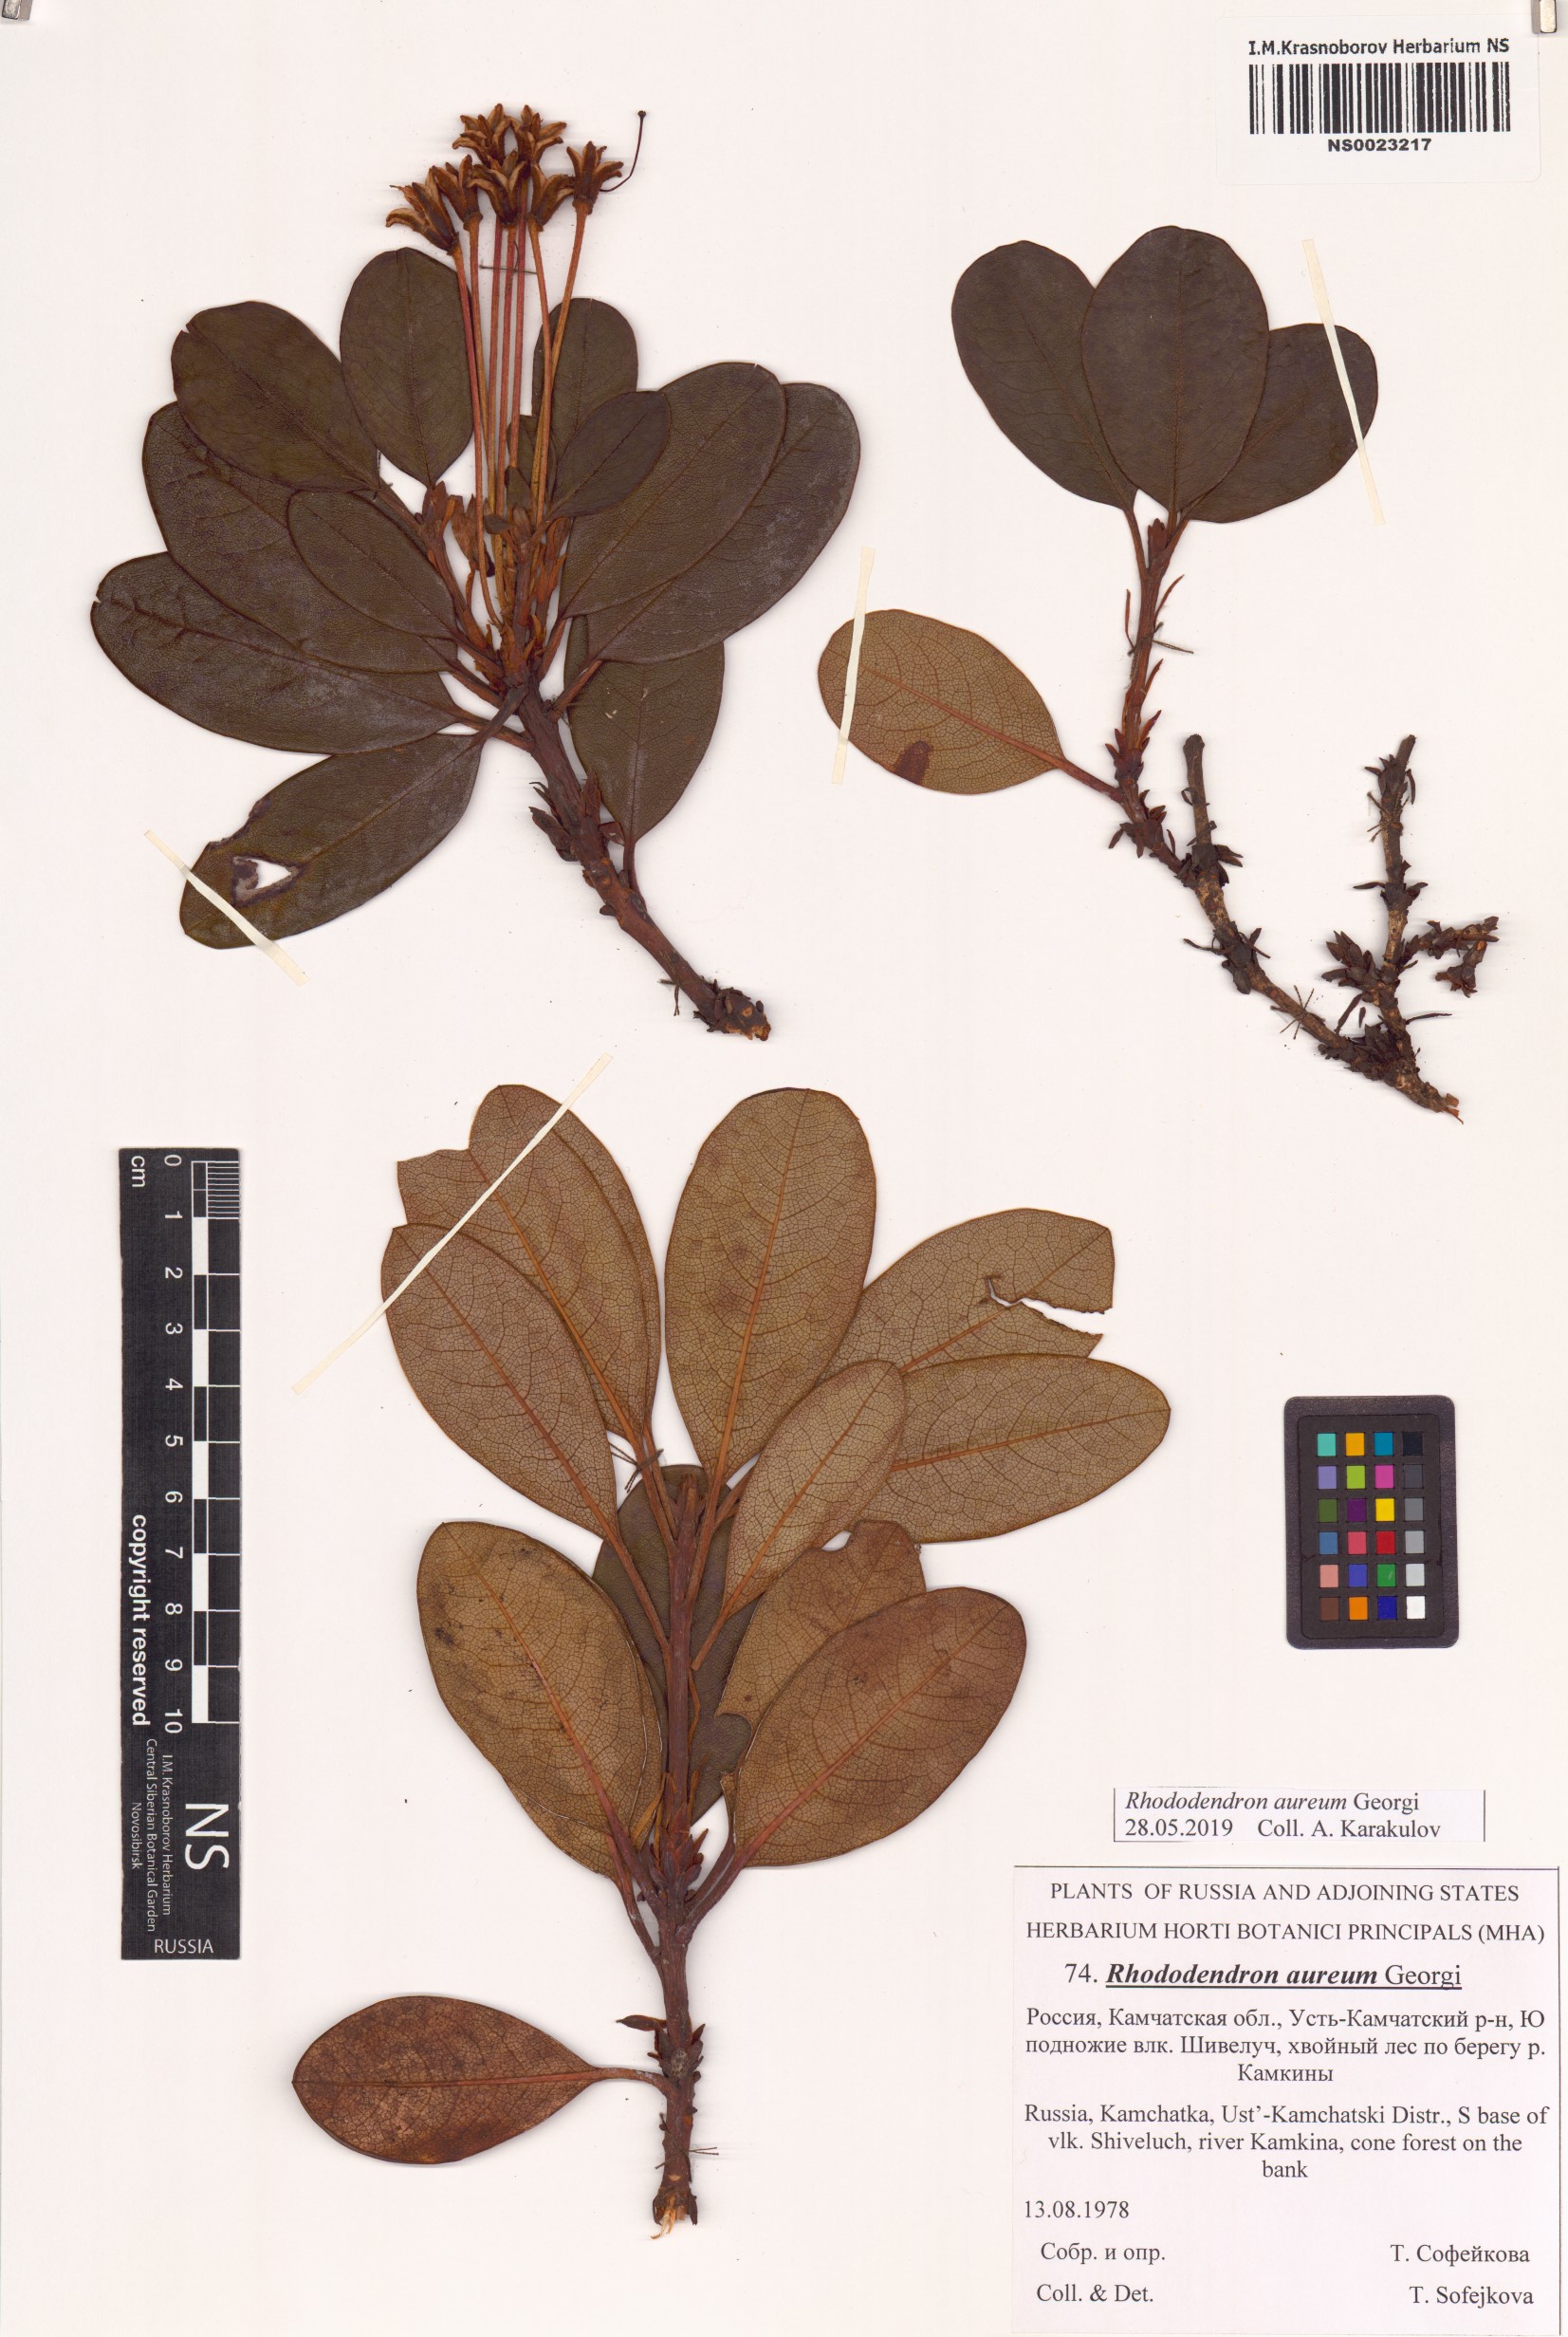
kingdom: Plantae
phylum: Tracheophyta
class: Magnoliopsida
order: Ericales
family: Ericaceae
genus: Rhododendron
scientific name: Rhododendron aureum
